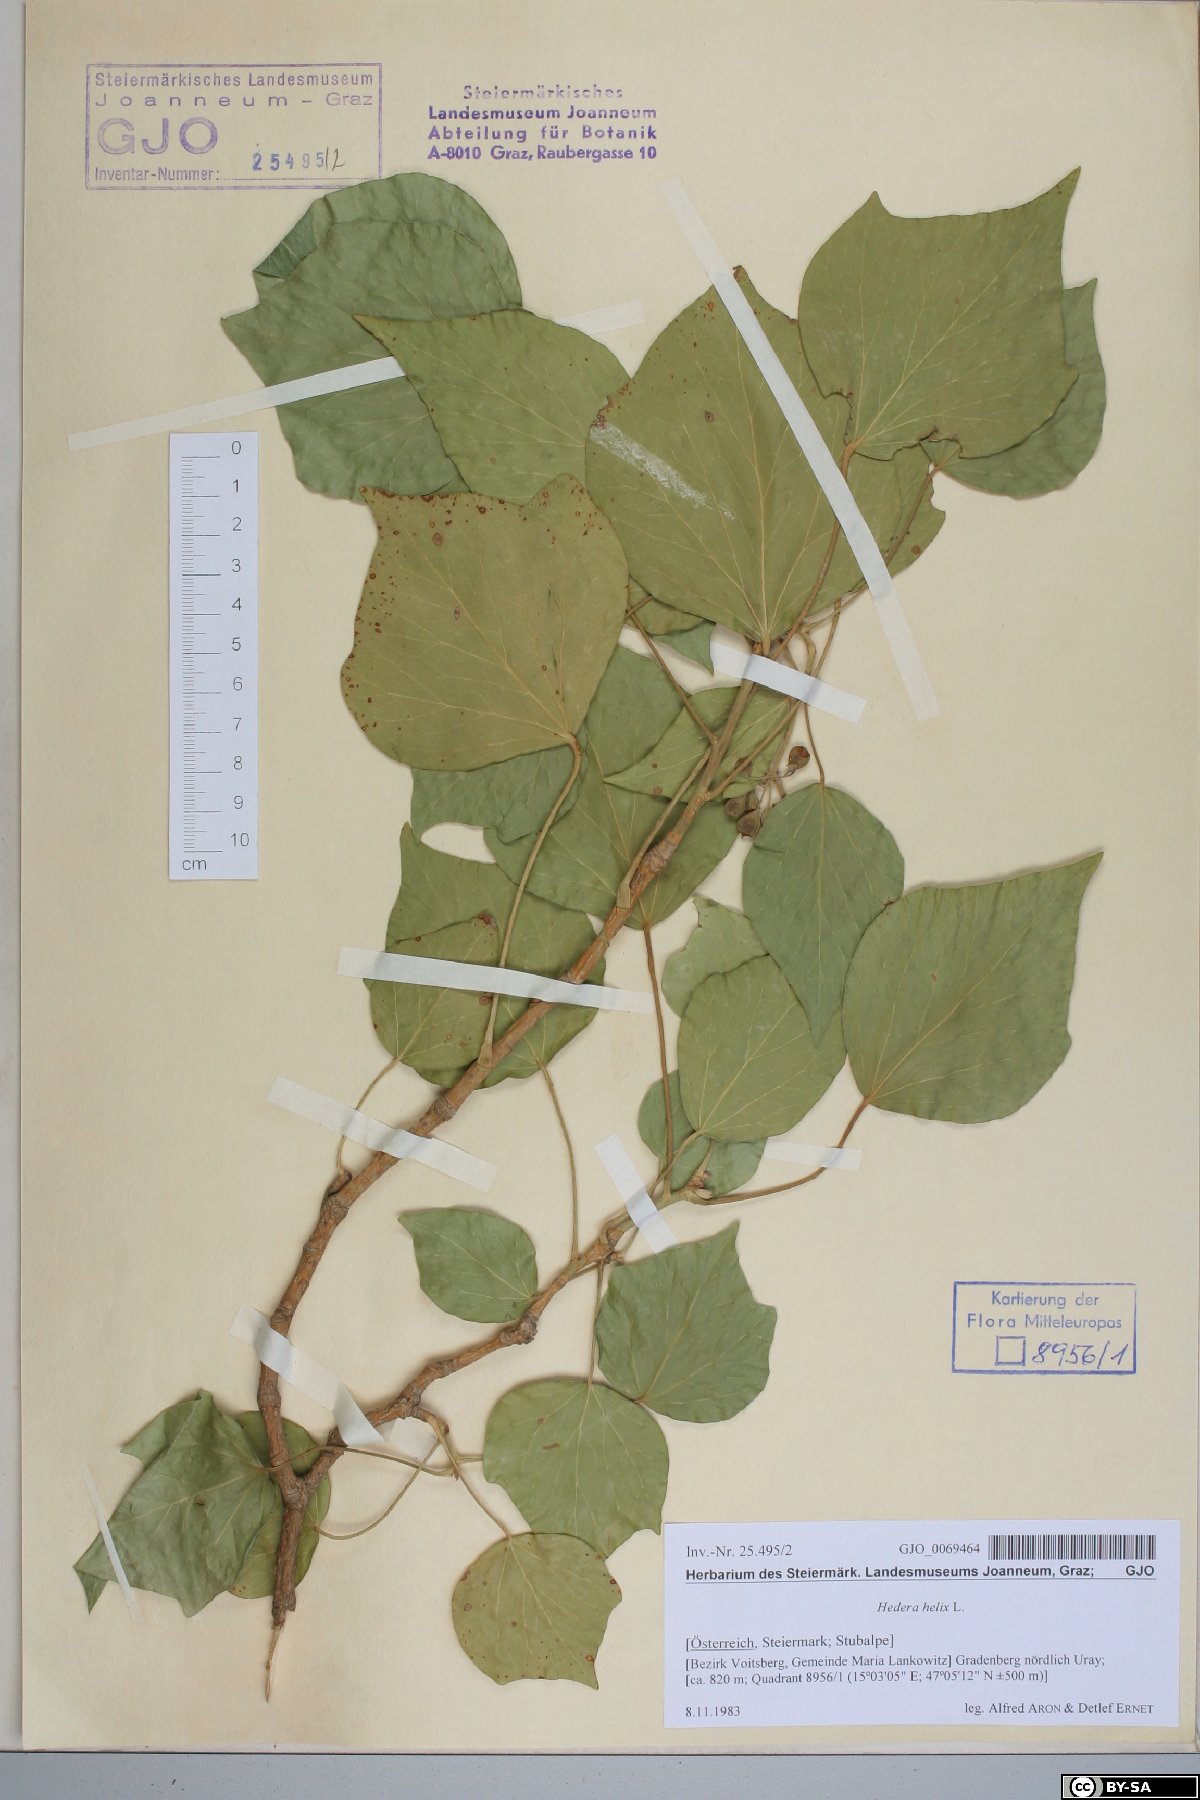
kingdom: Plantae
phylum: Tracheophyta
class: Magnoliopsida
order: Apiales
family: Araliaceae
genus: Hedera
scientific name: Hedera helix
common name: Ivy
